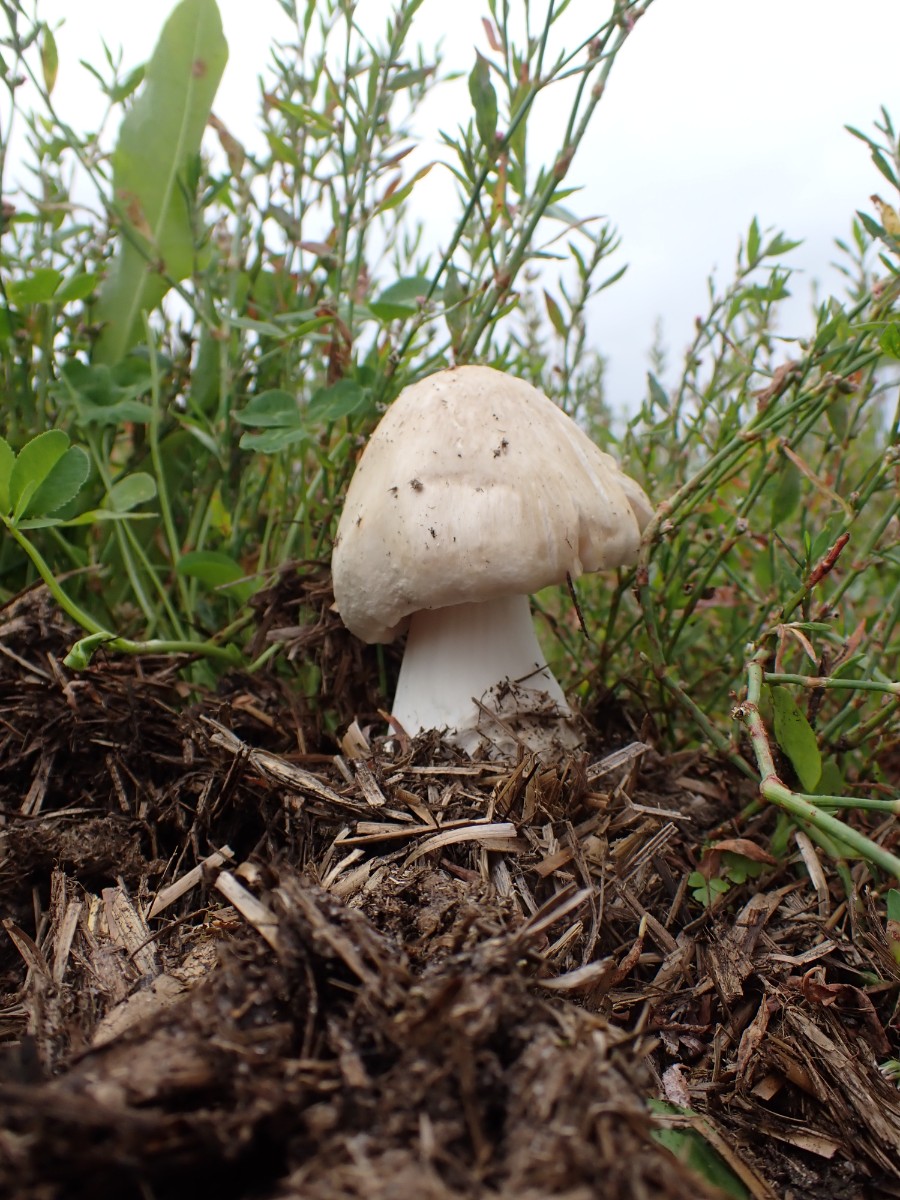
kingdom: Fungi
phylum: Basidiomycota
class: Agaricomycetes
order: Agaricales
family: Pluteaceae
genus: Volvopluteus
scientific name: Volvopluteus gloiocephalus
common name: høj posesvamp
